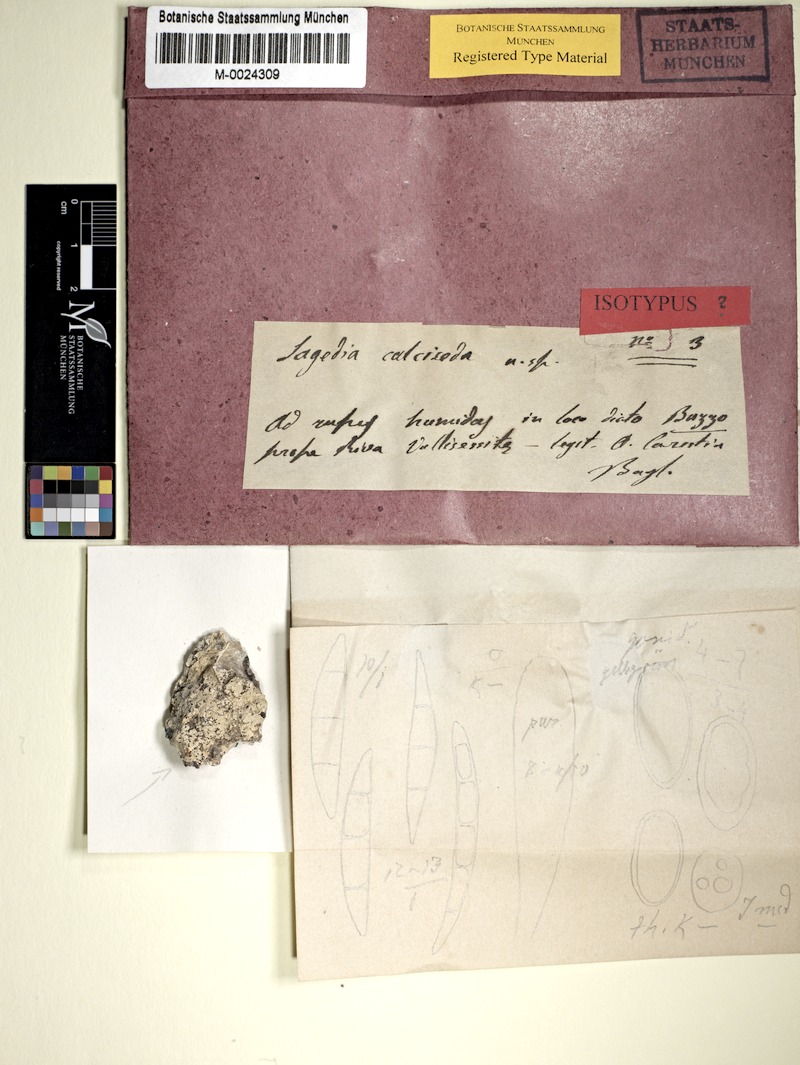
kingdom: Fungi
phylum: Ascomycota
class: Lecanoromycetes
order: Pertusariales
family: Pertusariaceae
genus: Porina
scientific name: Porina
